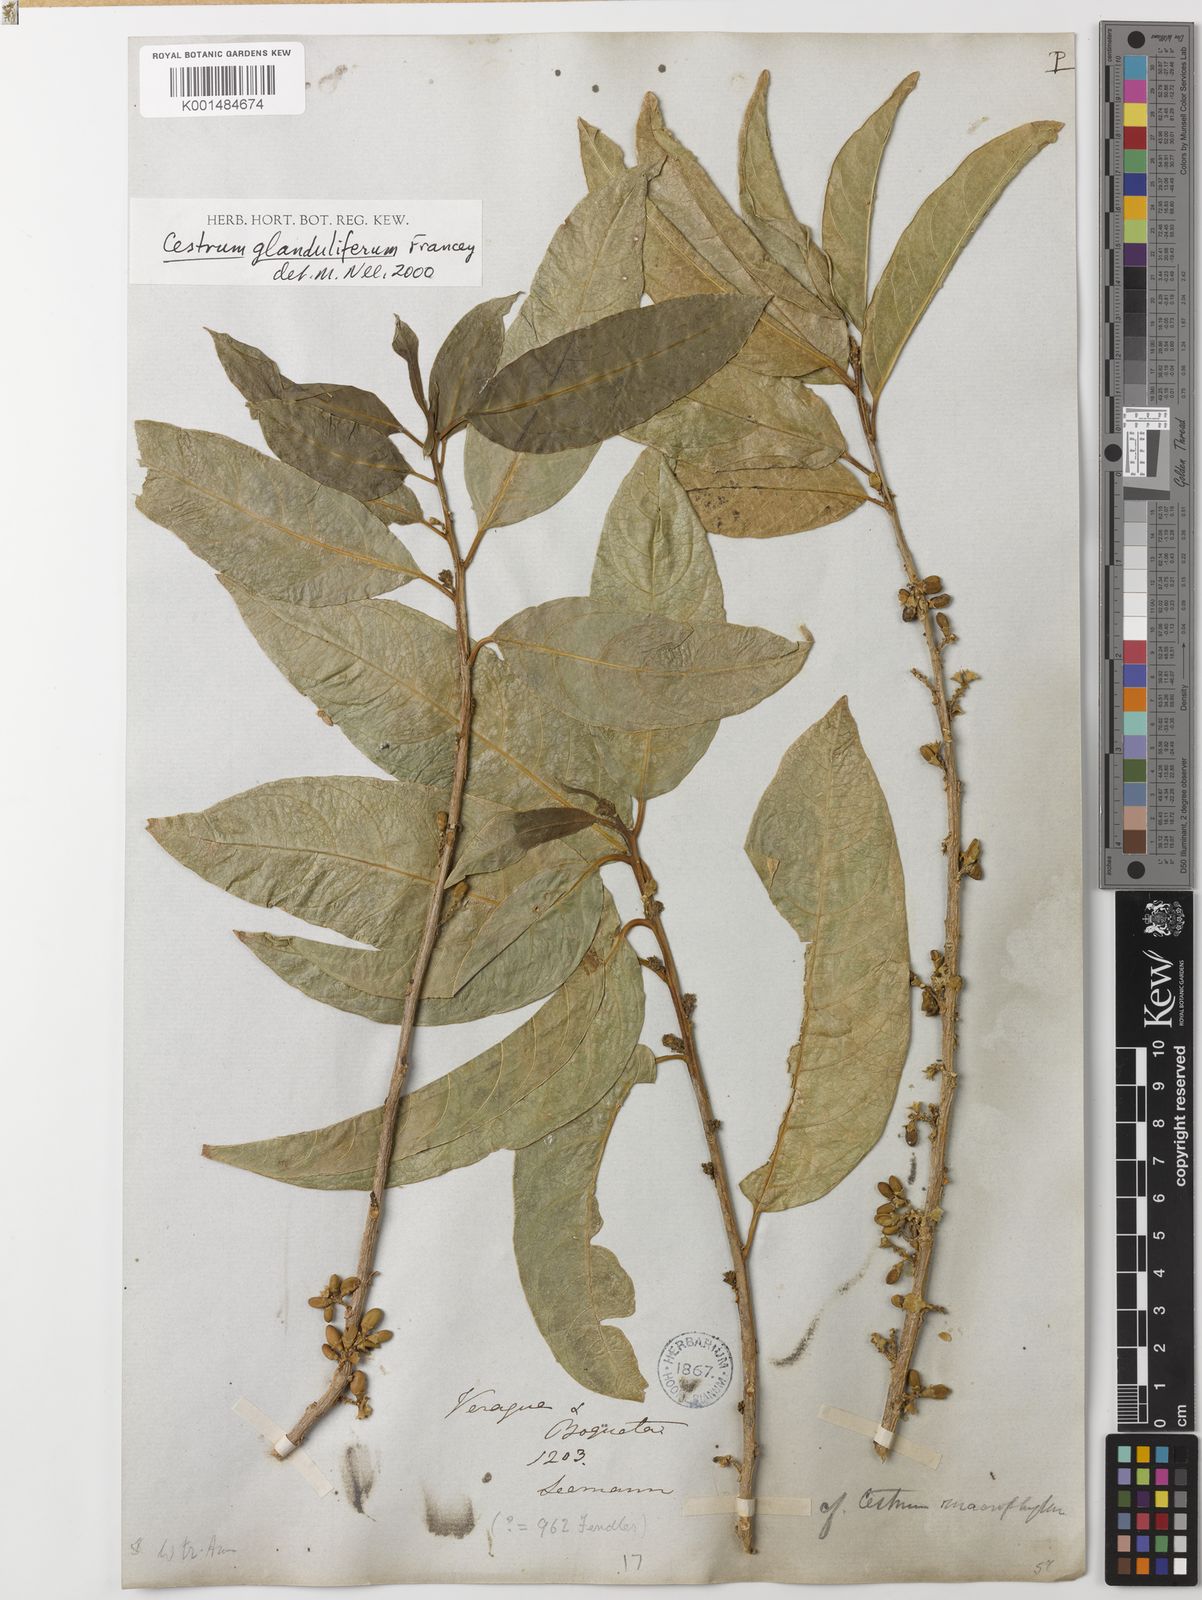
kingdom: Plantae
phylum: Tracheophyta
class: Magnoliopsida
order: Solanales
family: Solanaceae
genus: Cestrum
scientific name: Cestrum grandifolium
